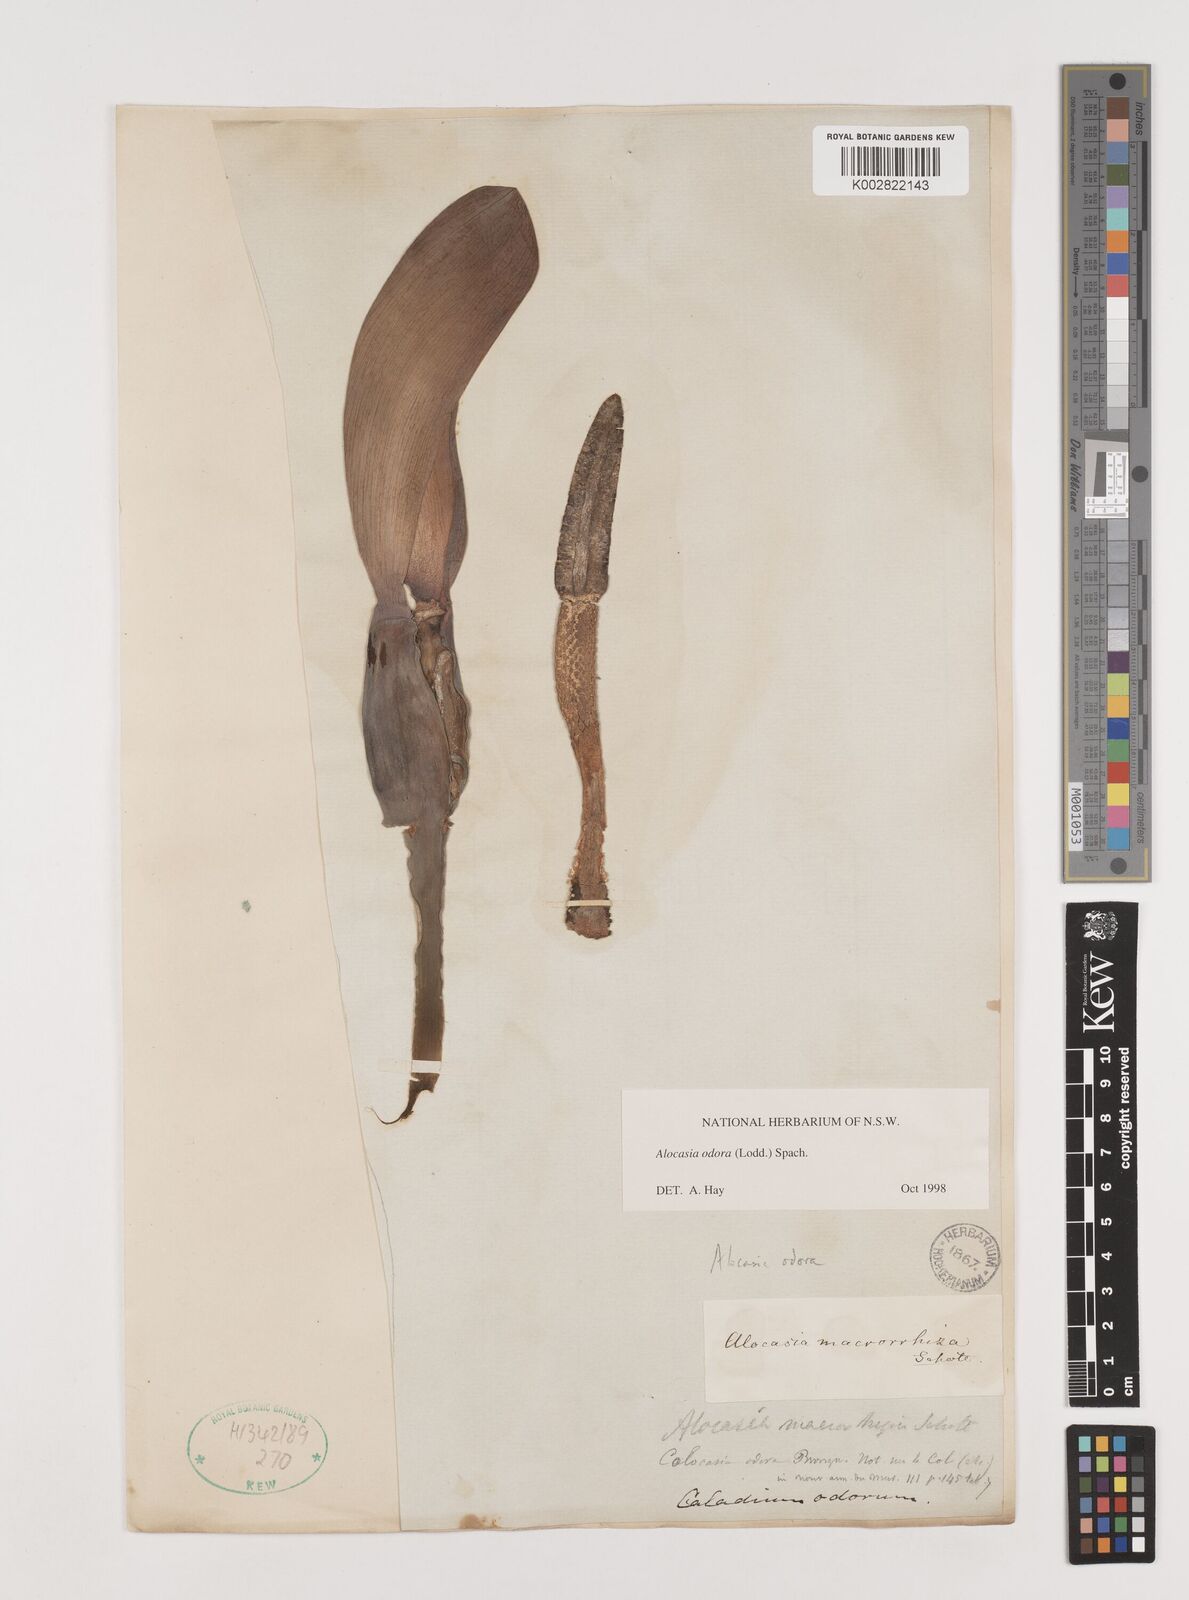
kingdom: Plantae
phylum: Tracheophyta
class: Liliopsida
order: Alismatales
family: Araceae
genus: Alocasia
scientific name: Alocasia odora
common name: Asian taro
